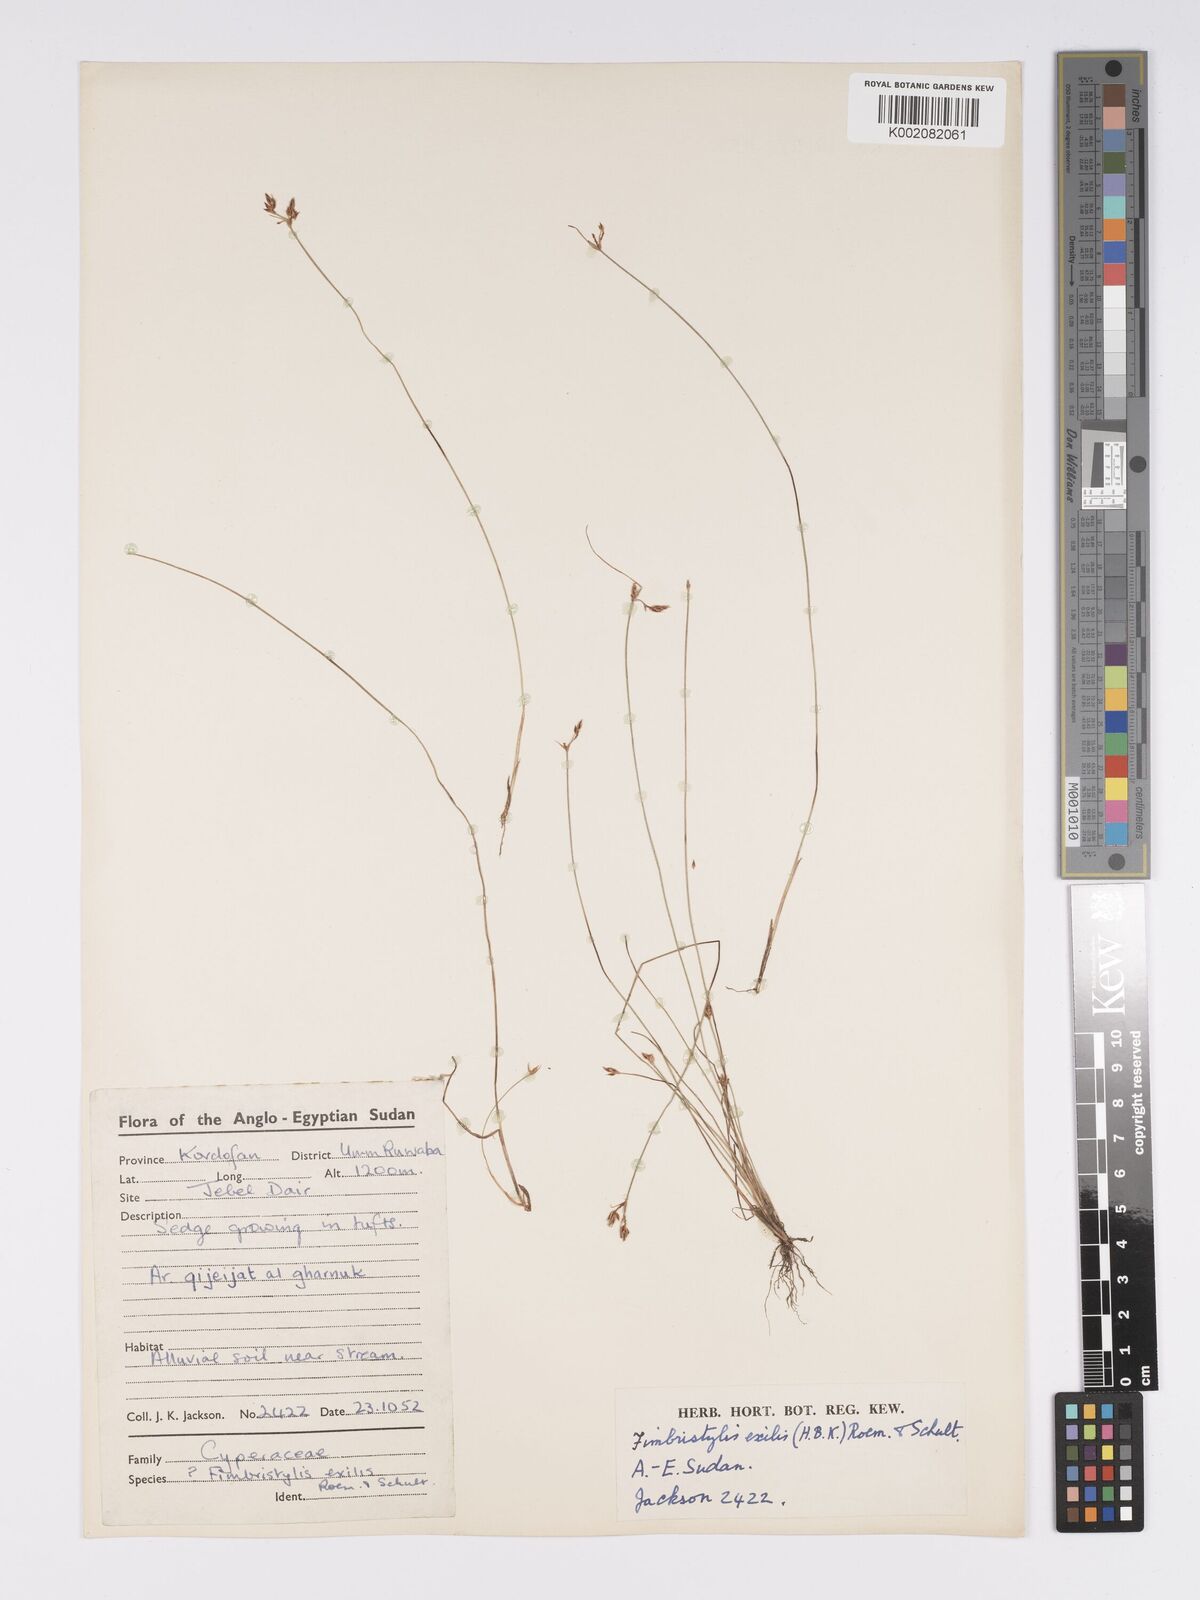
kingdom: Plantae
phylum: Tracheophyta
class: Liliopsida
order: Poales
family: Cyperaceae
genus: Bulbostylis
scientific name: Bulbostylis hispidula
